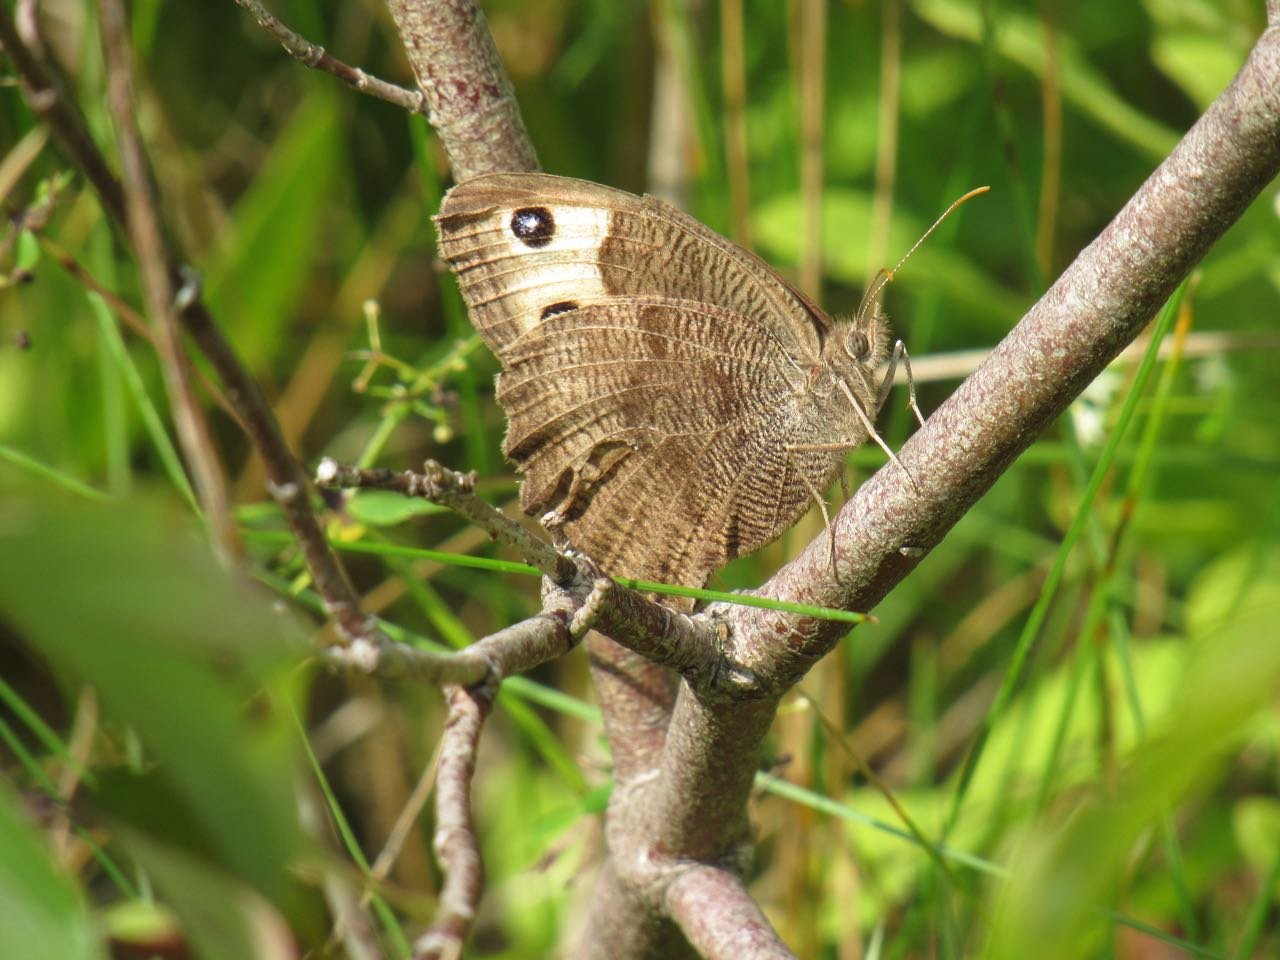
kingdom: Animalia
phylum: Arthropoda
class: Insecta
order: Lepidoptera
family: Nymphalidae
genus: Cercyonis
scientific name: Cercyonis pegala
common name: Common Wood-Nymph
